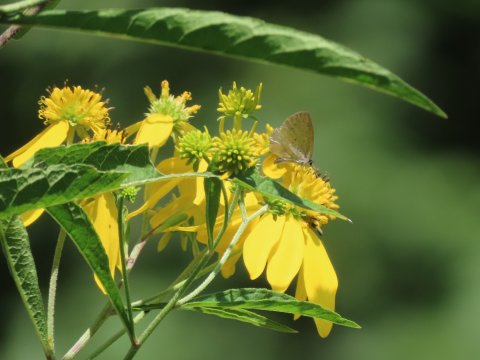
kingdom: Animalia
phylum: Arthropoda
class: Insecta
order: Lepidoptera
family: Lycaenidae
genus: Cyaniris
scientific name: Cyaniris neglecta
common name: Summer Azure
